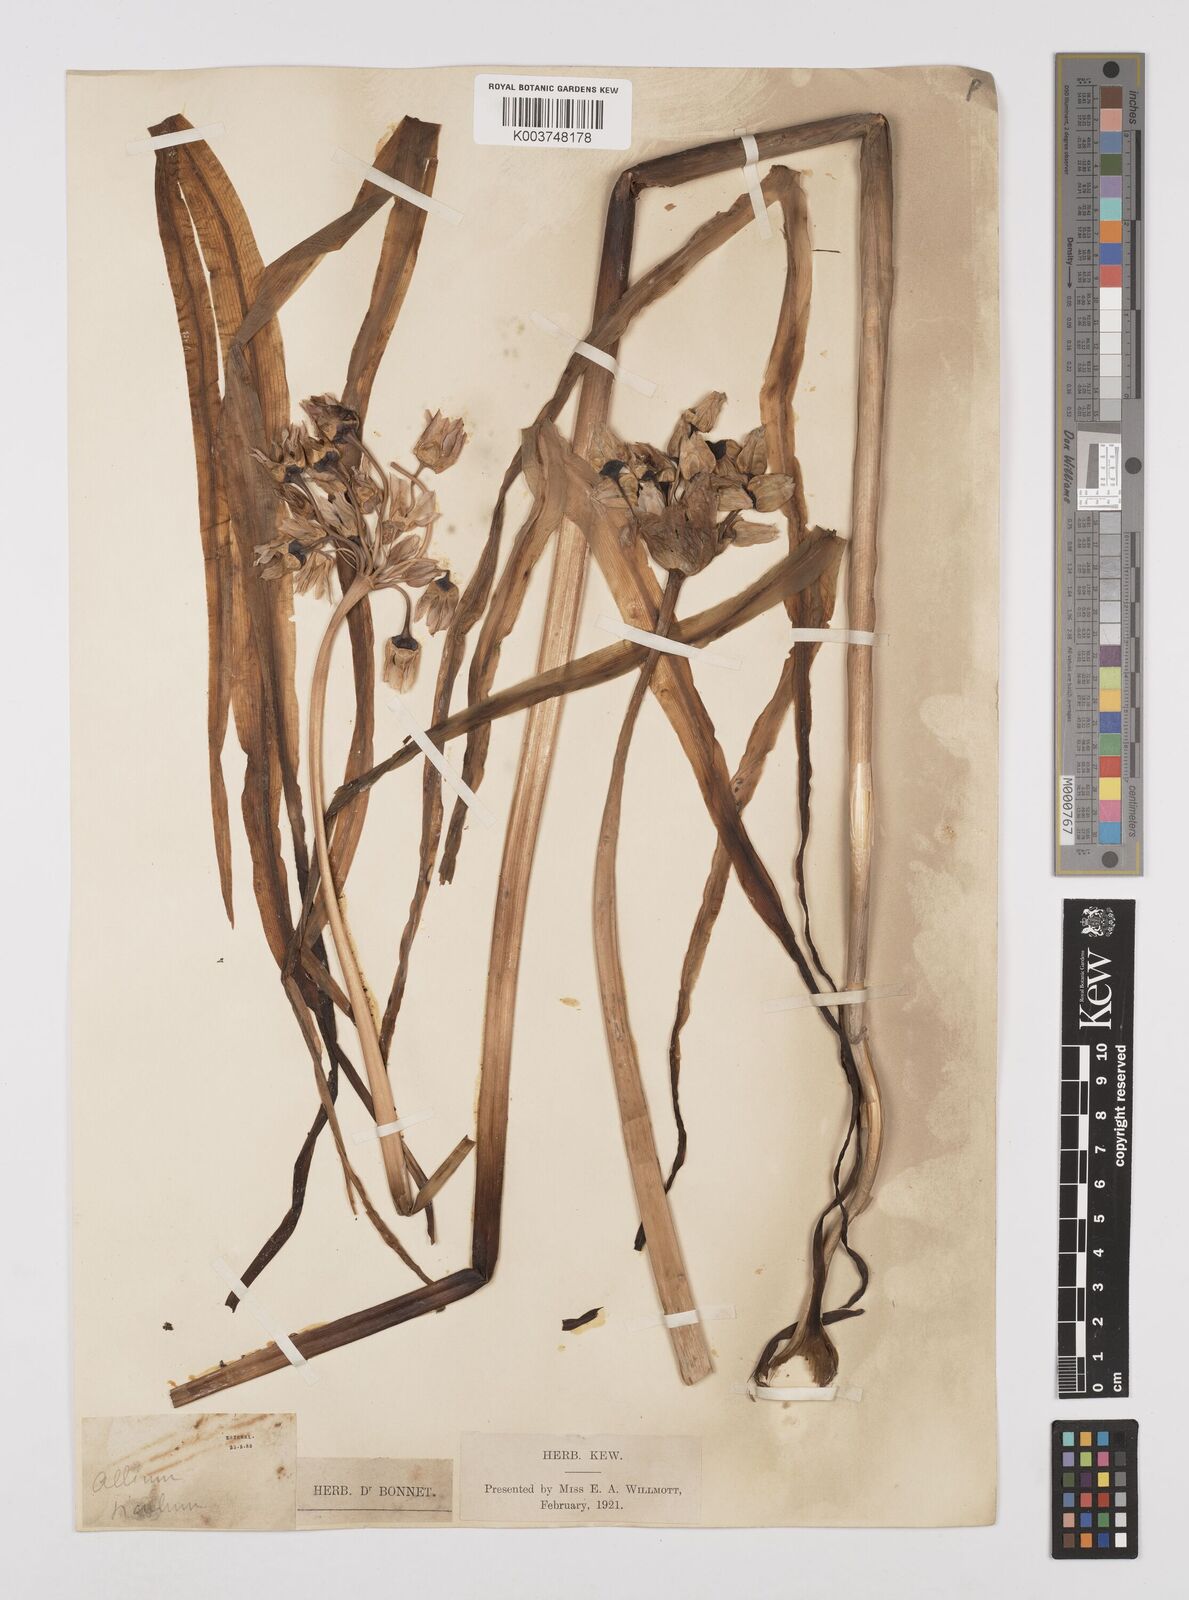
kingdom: Plantae
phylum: Tracheophyta
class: Liliopsida
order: Asparagales
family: Amaryllidaceae
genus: Allium
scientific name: Allium siculum
